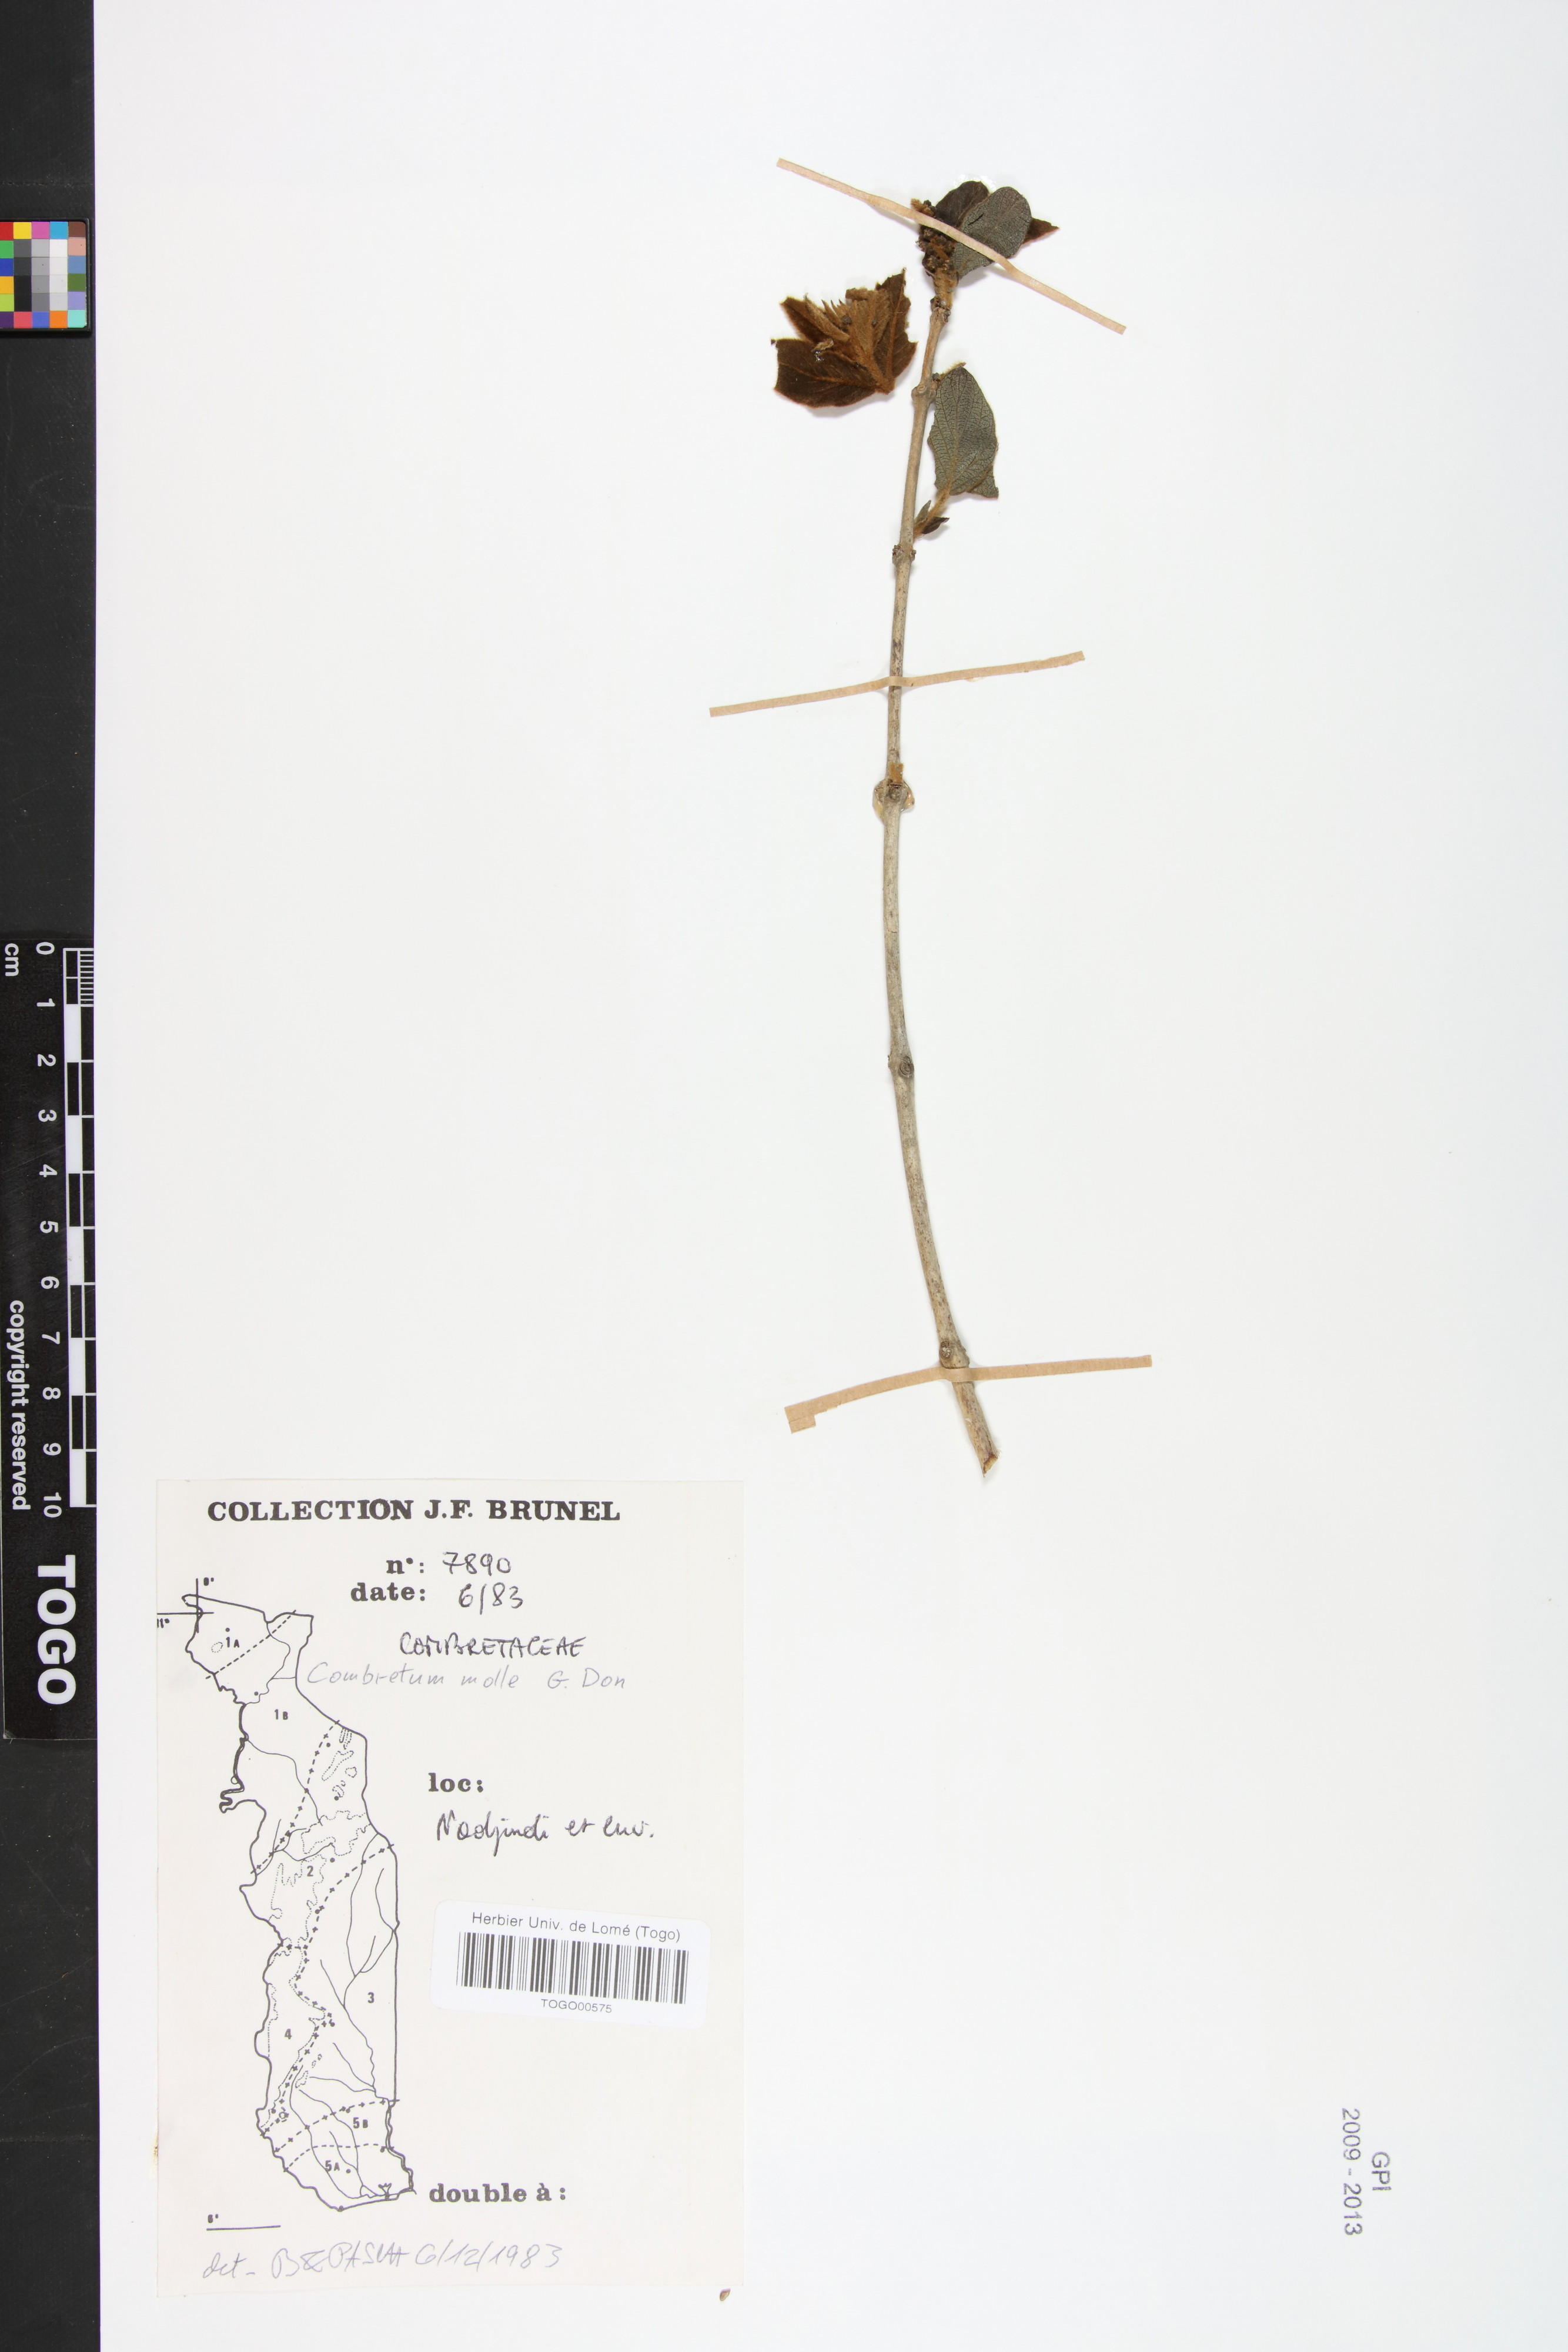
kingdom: Plantae
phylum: Tracheophyta
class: Magnoliopsida
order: Myrtales
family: Combretaceae
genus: Combretum
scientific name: Combretum molle
